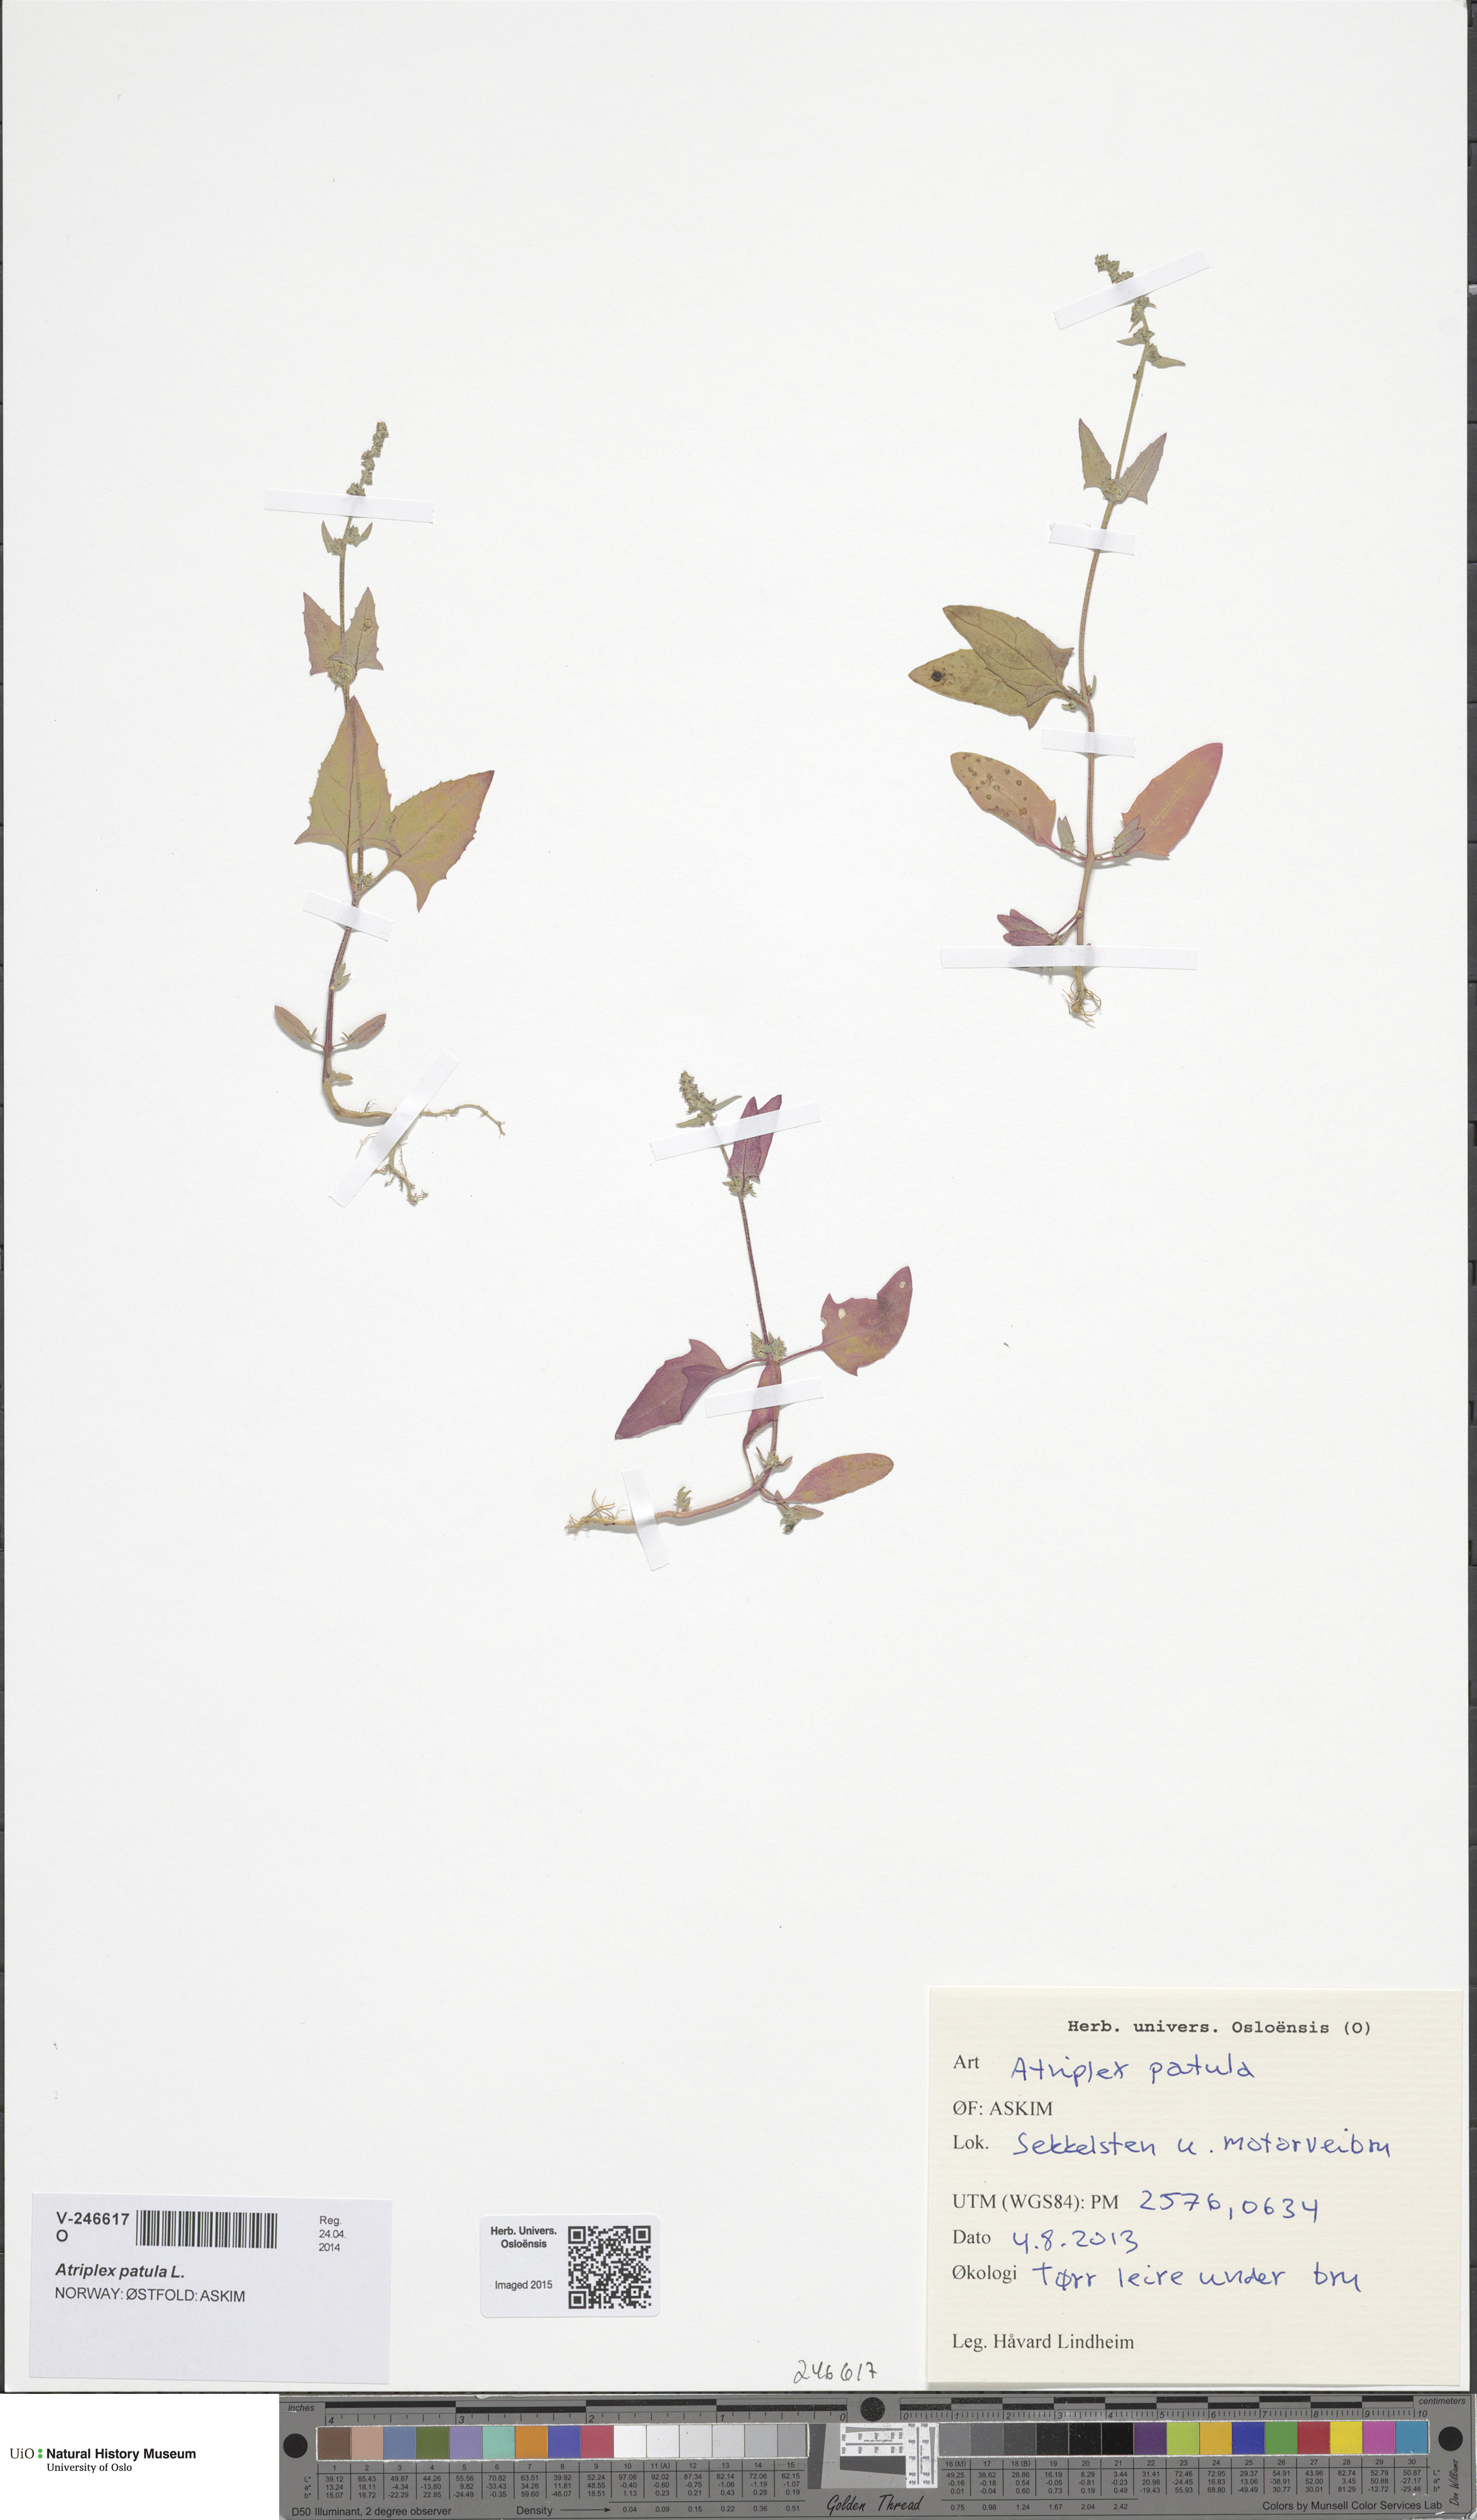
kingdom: Plantae
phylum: Tracheophyta
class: Magnoliopsida
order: Caryophyllales
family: Amaranthaceae
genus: Atriplex
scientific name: Atriplex patula
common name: Common orache
